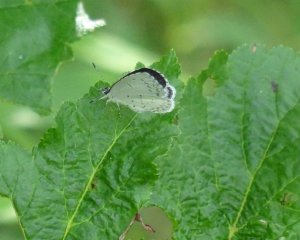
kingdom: Animalia
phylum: Arthropoda
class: Insecta
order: Lepidoptera
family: Lycaenidae
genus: Cyaniris
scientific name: Cyaniris neglecta
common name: Summer Azure
